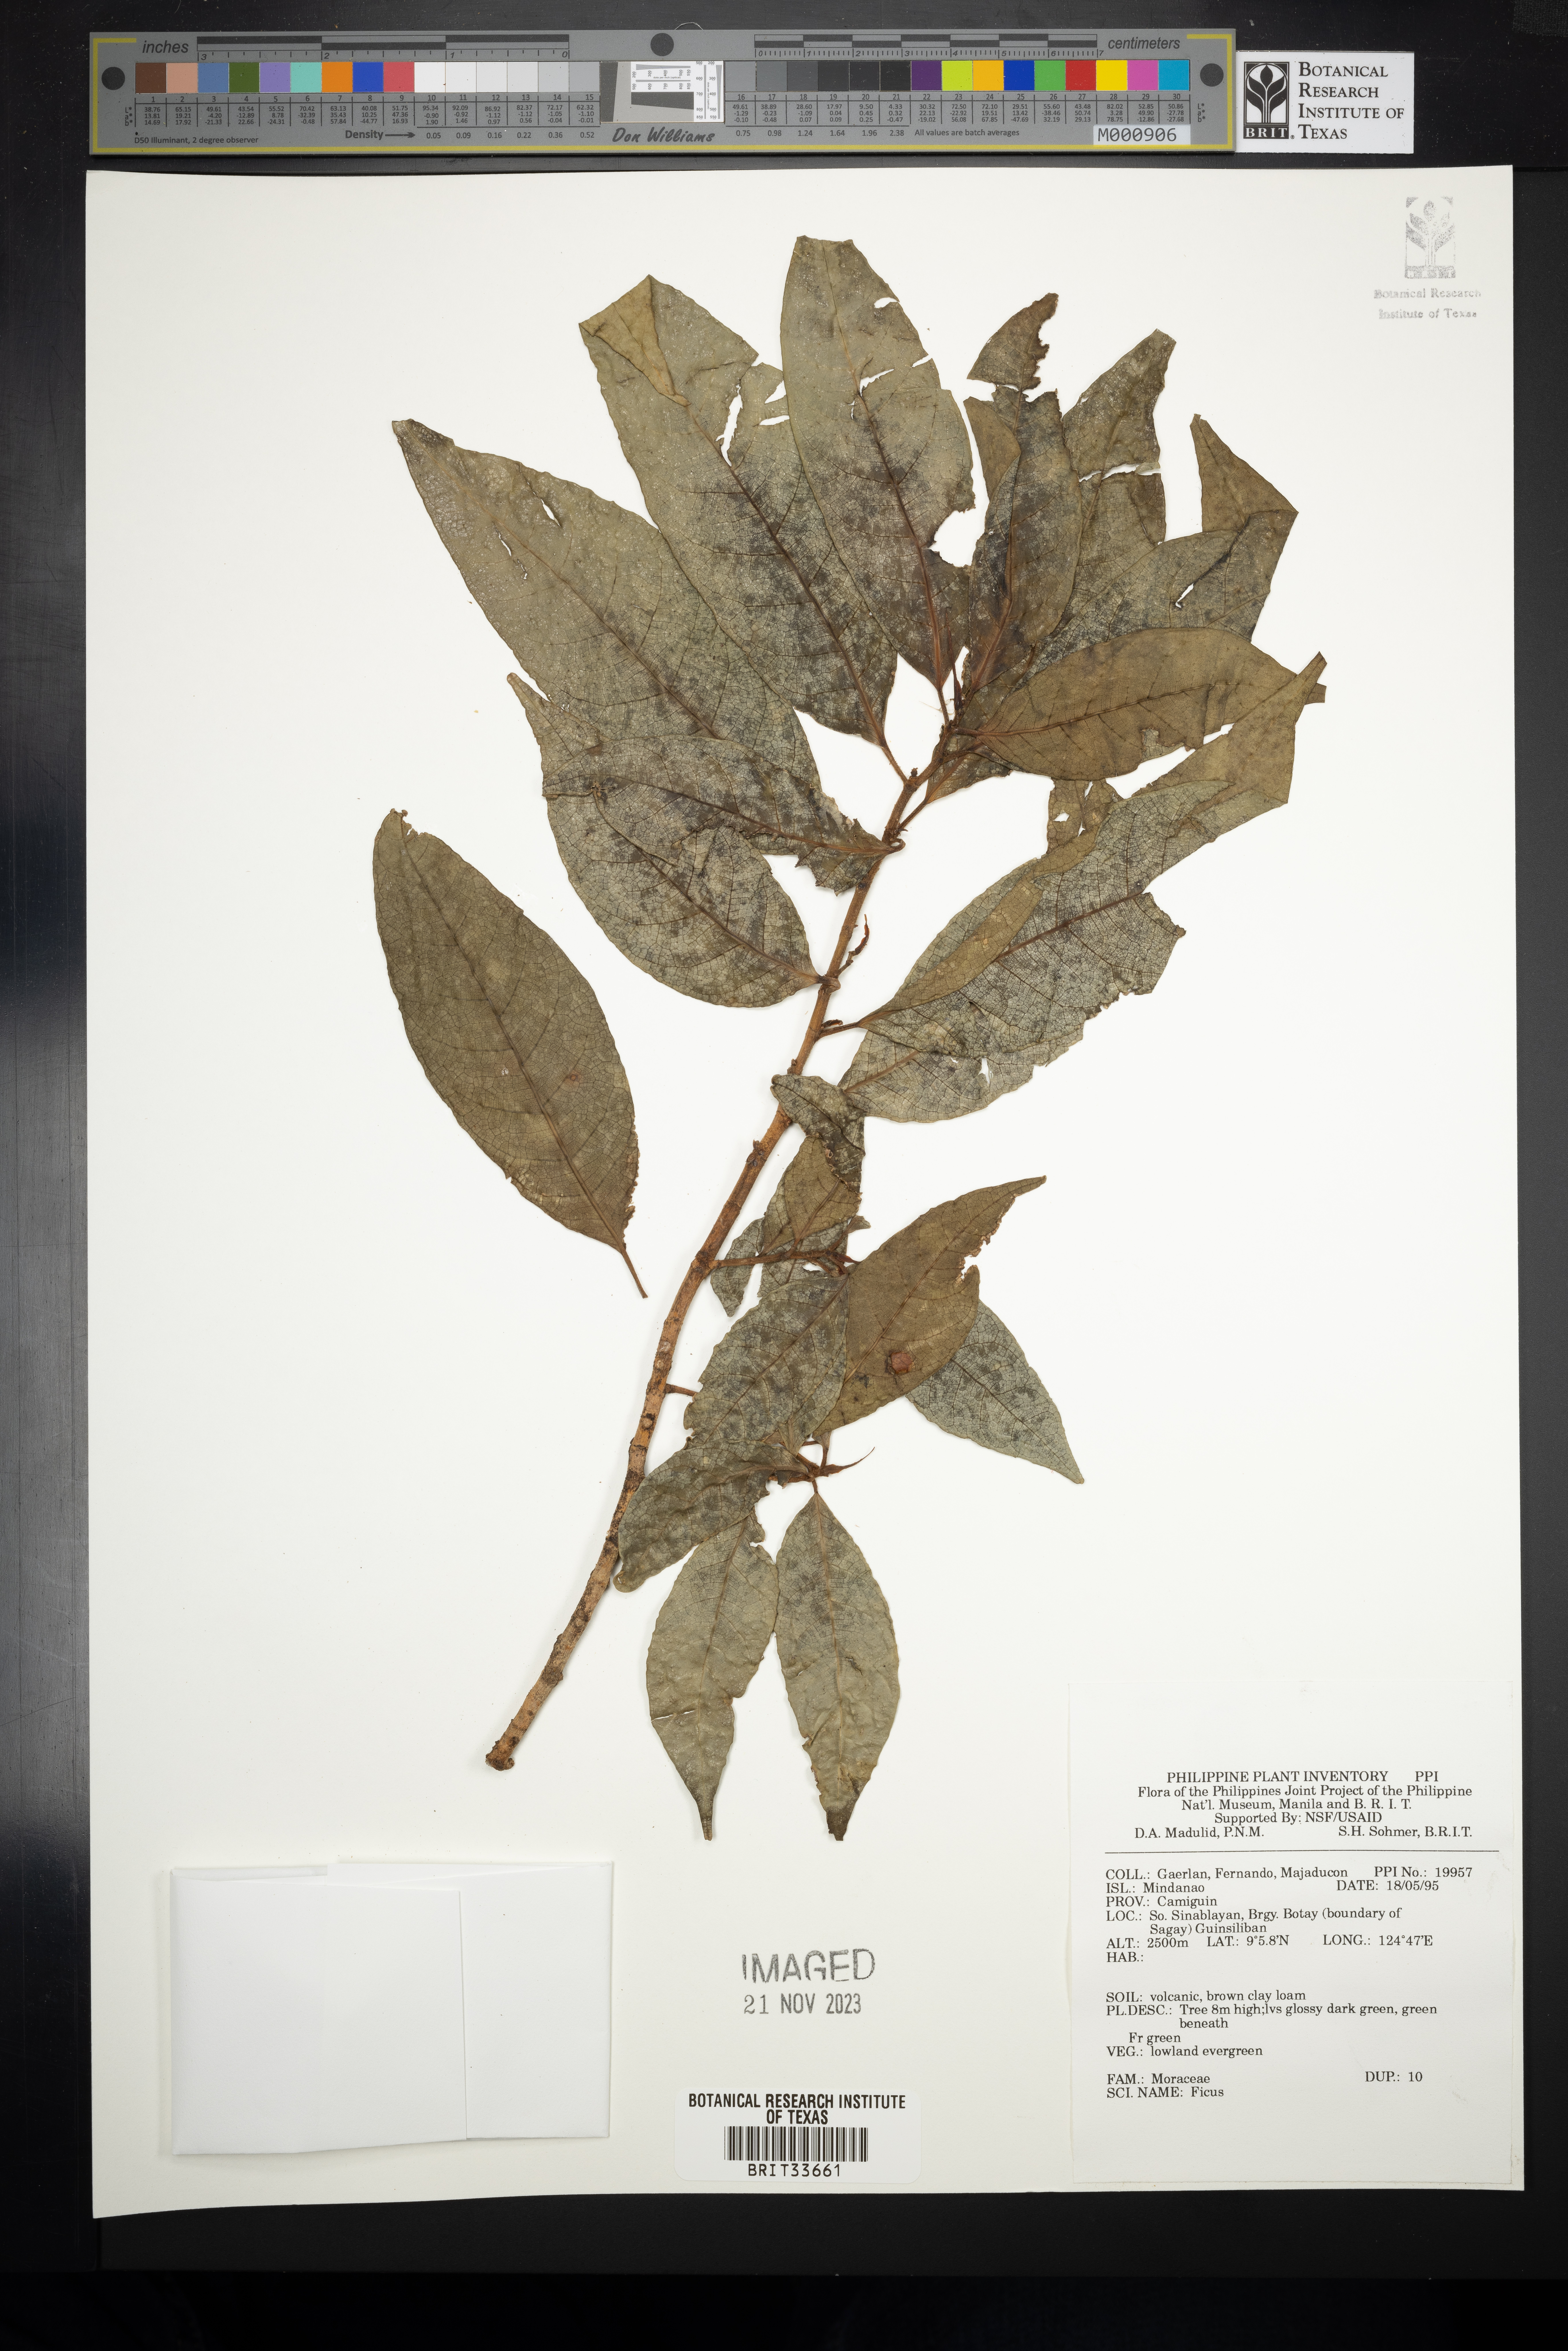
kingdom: Plantae
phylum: Tracheophyta
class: Magnoliopsida
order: Rosales
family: Moraceae
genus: Ficus
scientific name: Ficus
